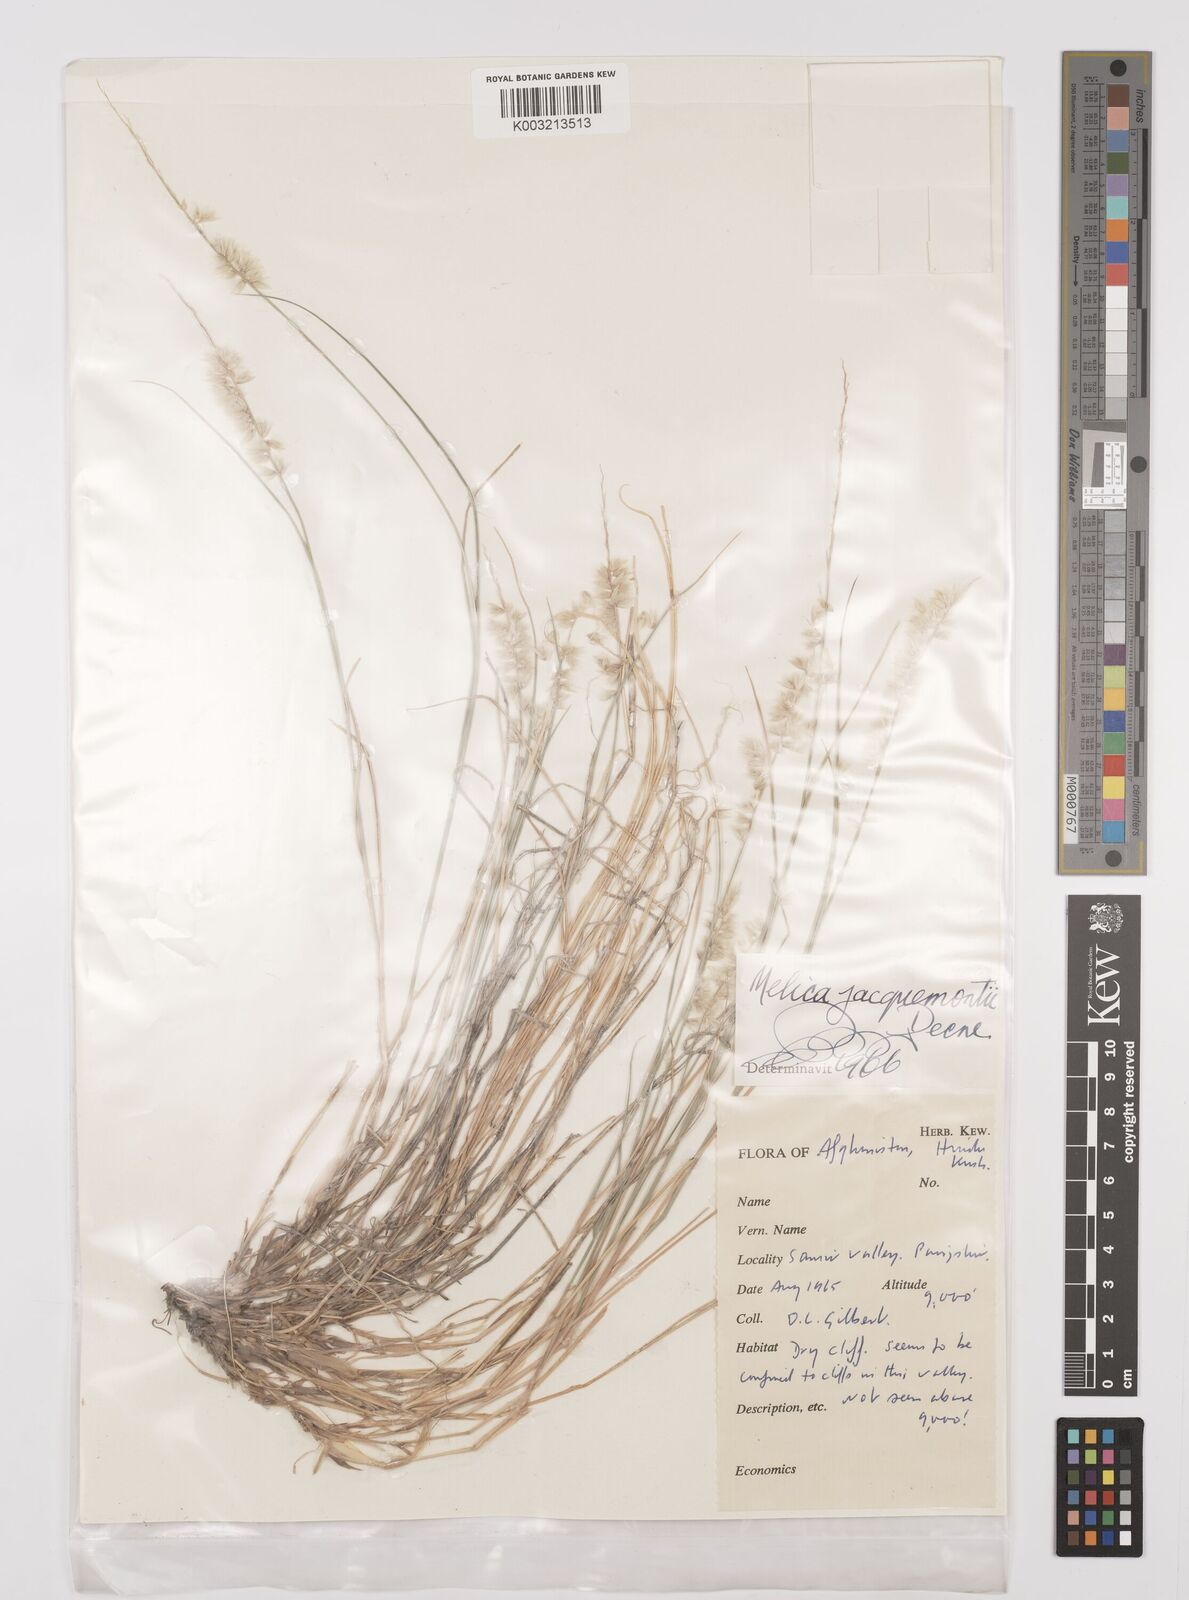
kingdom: Plantae
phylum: Tracheophyta
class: Liliopsida
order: Poales
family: Poaceae
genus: Melica
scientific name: Melica persica
